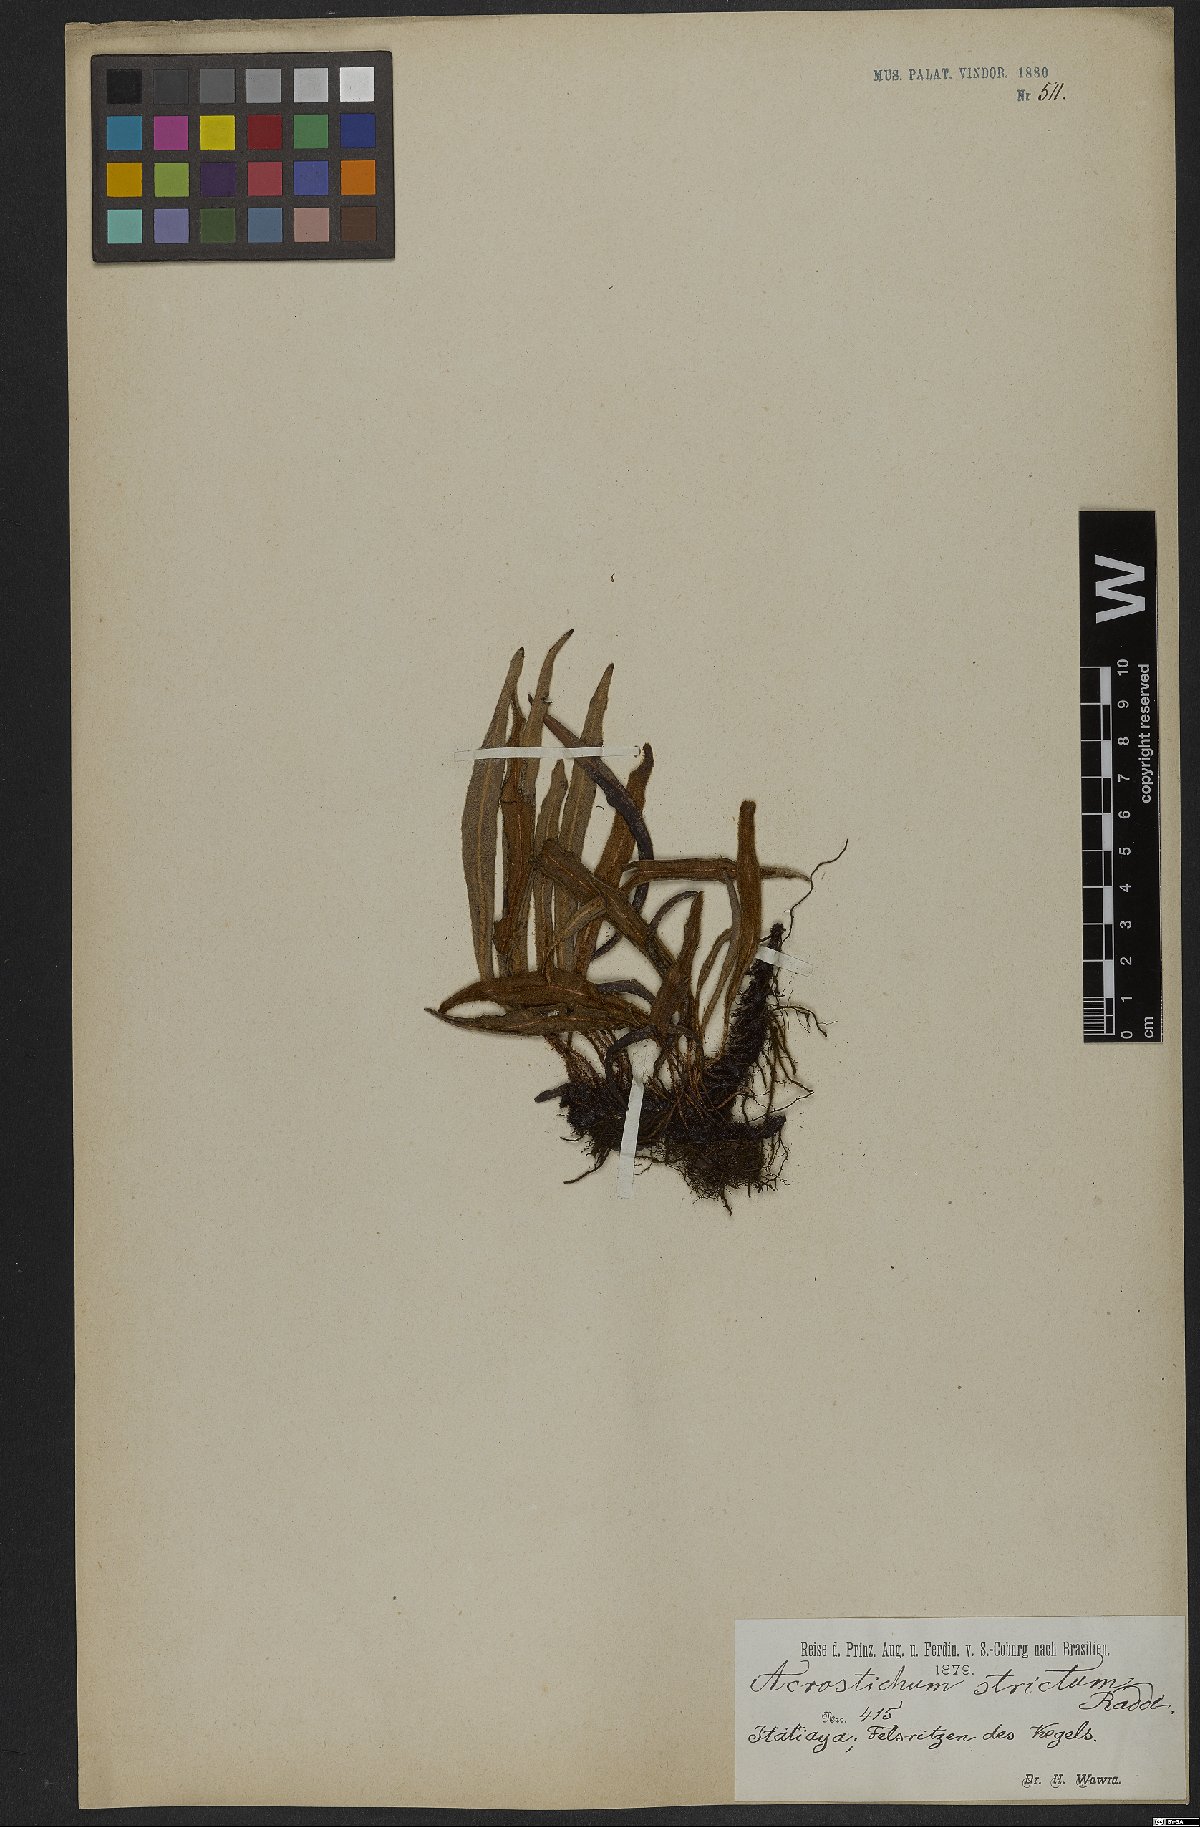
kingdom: Plantae
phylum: Tracheophyta
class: Polypodiopsida
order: Polypodiales
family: Dryopteridaceae
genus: Elaphoglossum
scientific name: Elaphoglossum curvans
